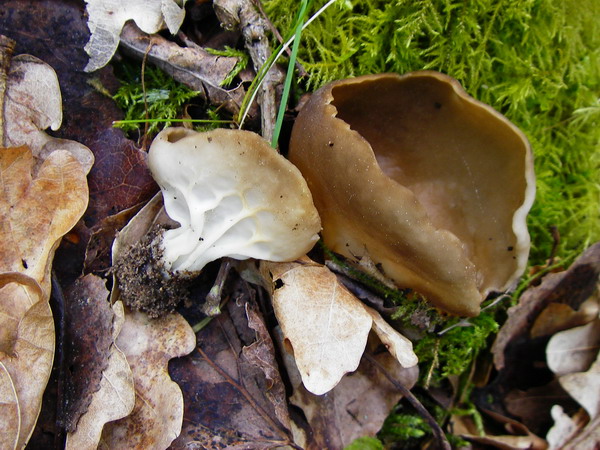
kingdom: Fungi
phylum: Ascomycota
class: Pezizomycetes
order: Pezizales
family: Helvellaceae
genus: Helvella
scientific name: Helvella acetabulum
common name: pokal-foldhat
